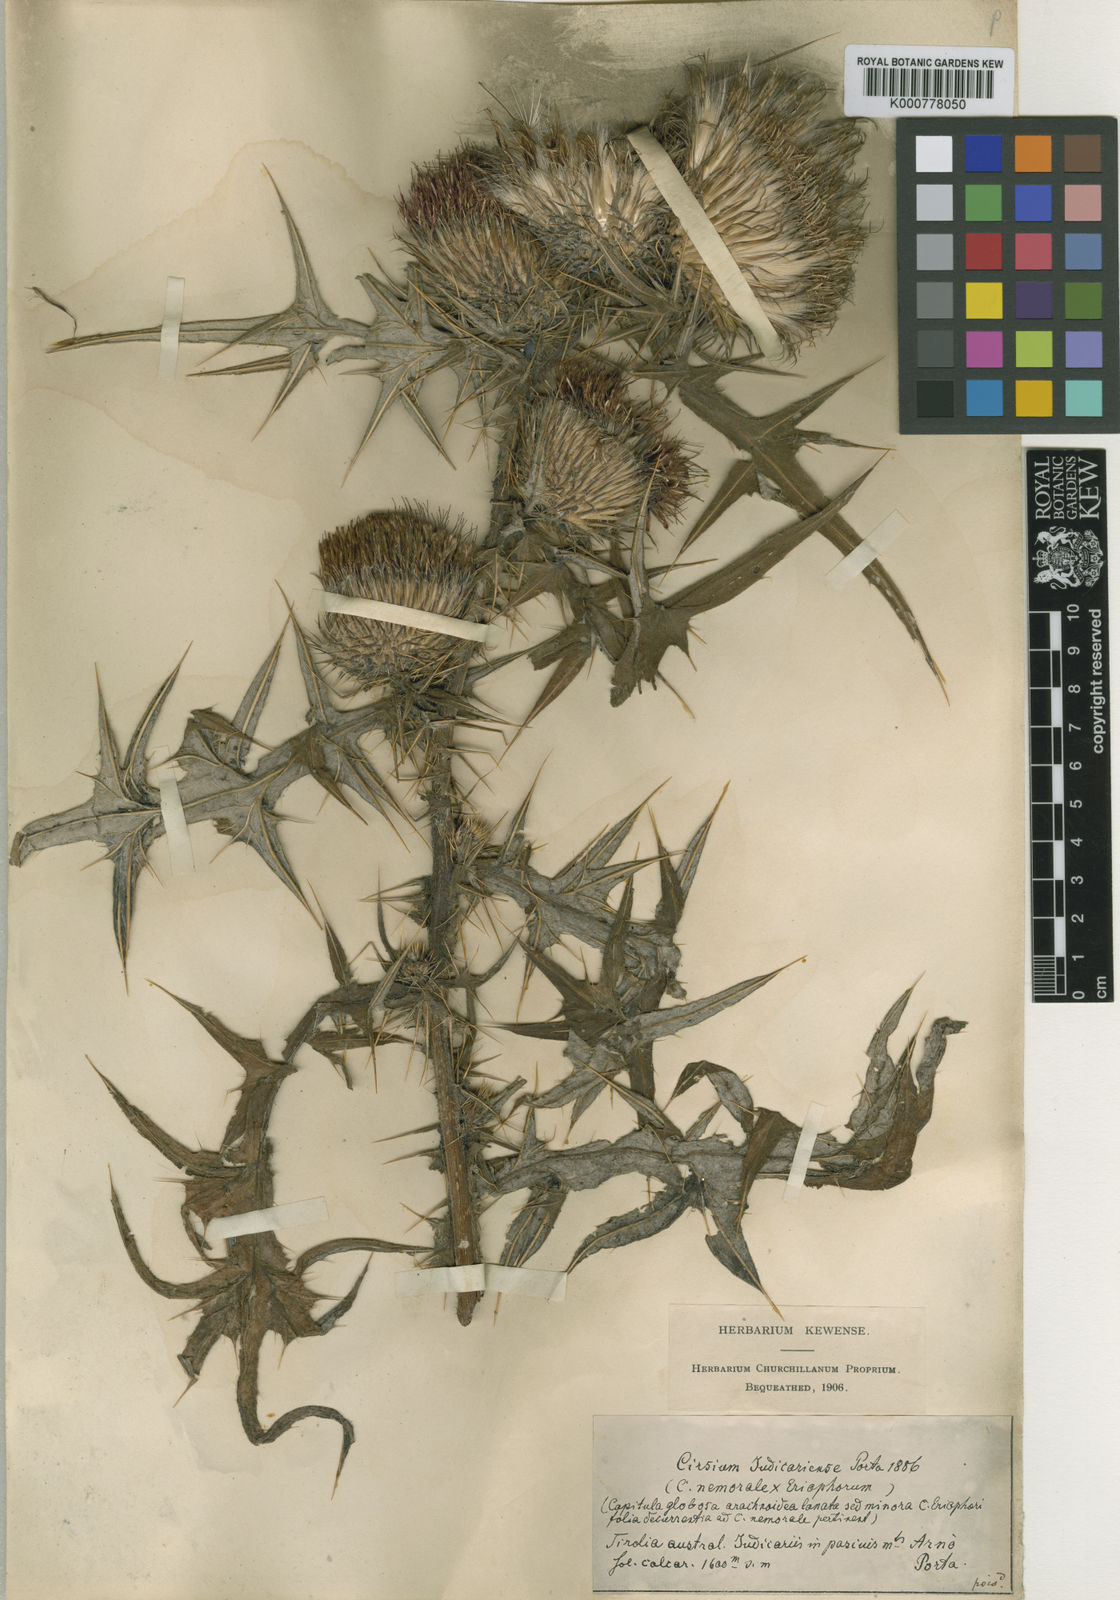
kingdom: Plantae
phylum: Tracheophyta
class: Magnoliopsida
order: Asterales
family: Asteraceae
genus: Cirsium
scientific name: Cirsium vulgare
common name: Bull thistle
